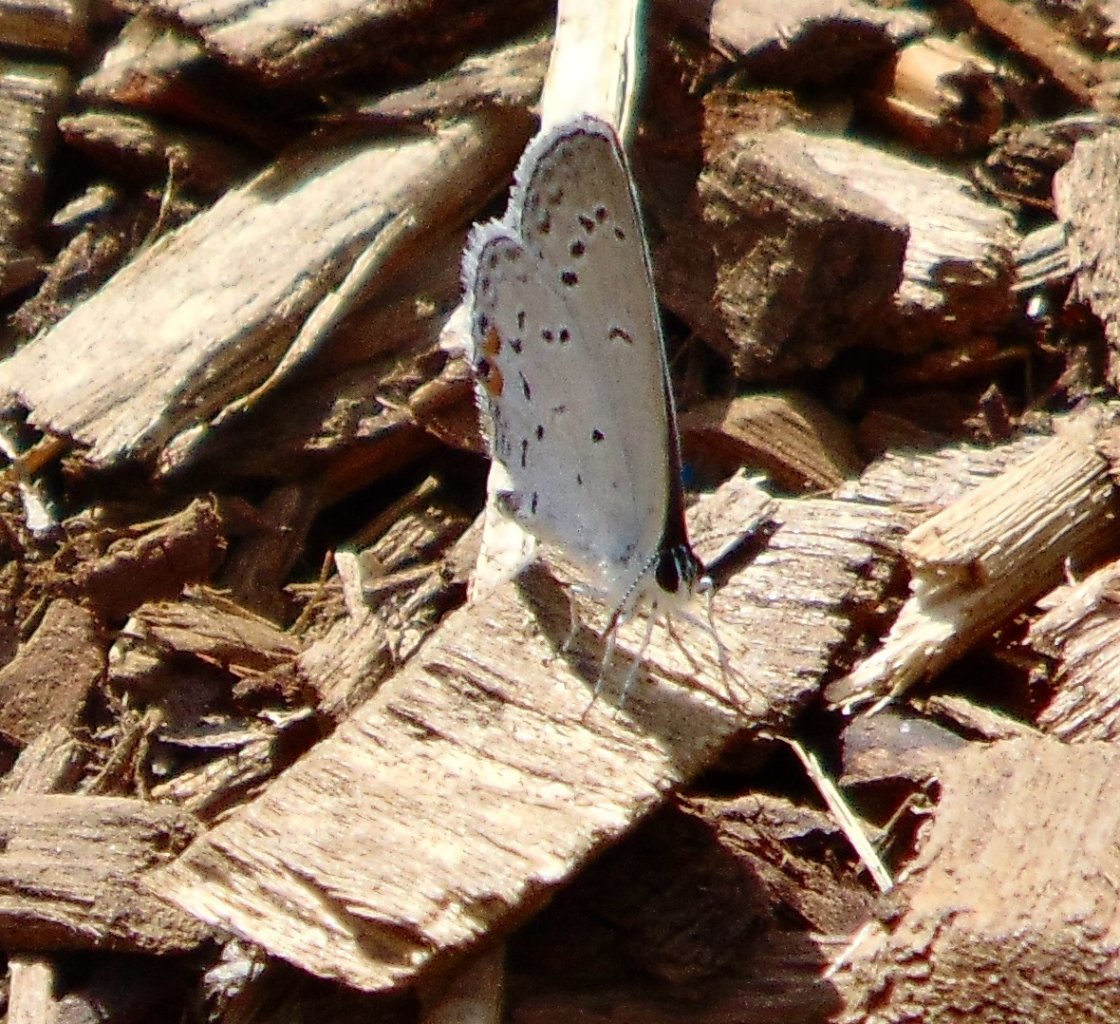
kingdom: Animalia
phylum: Arthropoda
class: Insecta
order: Lepidoptera
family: Lycaenidae
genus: Elkalyce
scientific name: Elkalyce comyntas
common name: Eastern Tailed-Blue
